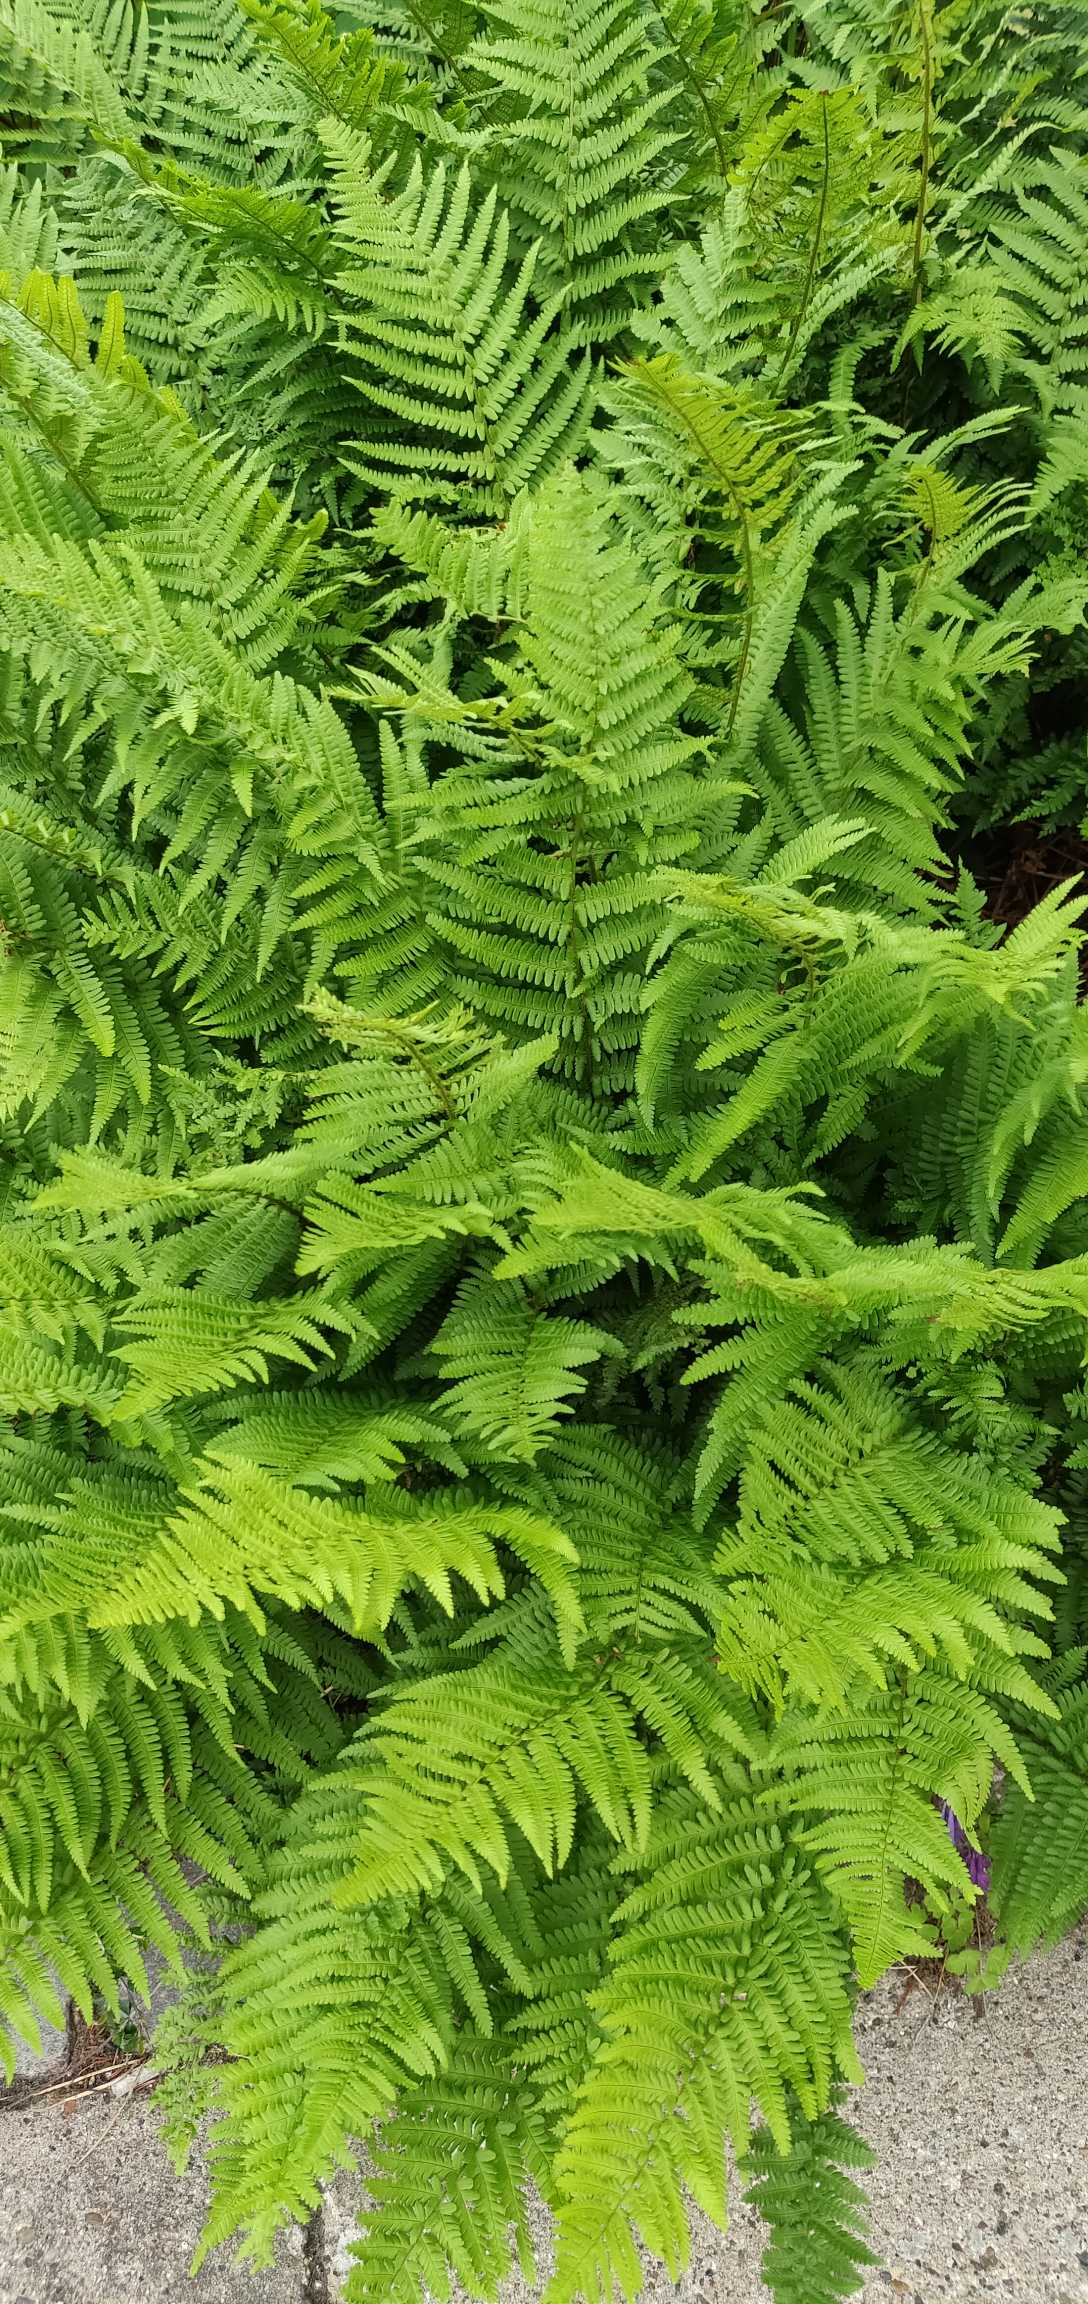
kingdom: Plantae
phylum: Tracheophyta
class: Polypodiopsida
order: Polypodiales
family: Dryopteridaceae
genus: Dryopteris
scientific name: Dryopteris filix-mas
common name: Almindelig mangeløv
